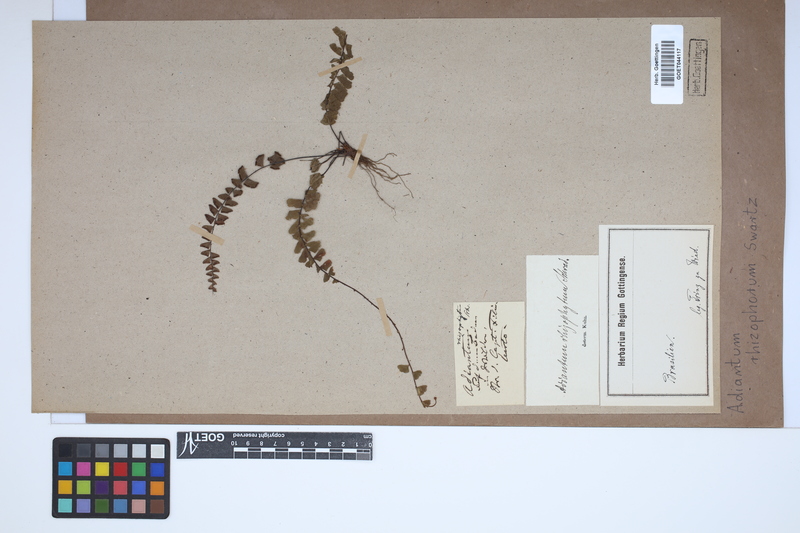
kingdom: Plantae
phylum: Tracheophyta
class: Polypodiopsida
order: Polypodiales
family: Pteridaceae
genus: Adiantum
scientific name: Adiantum rhizophorum
